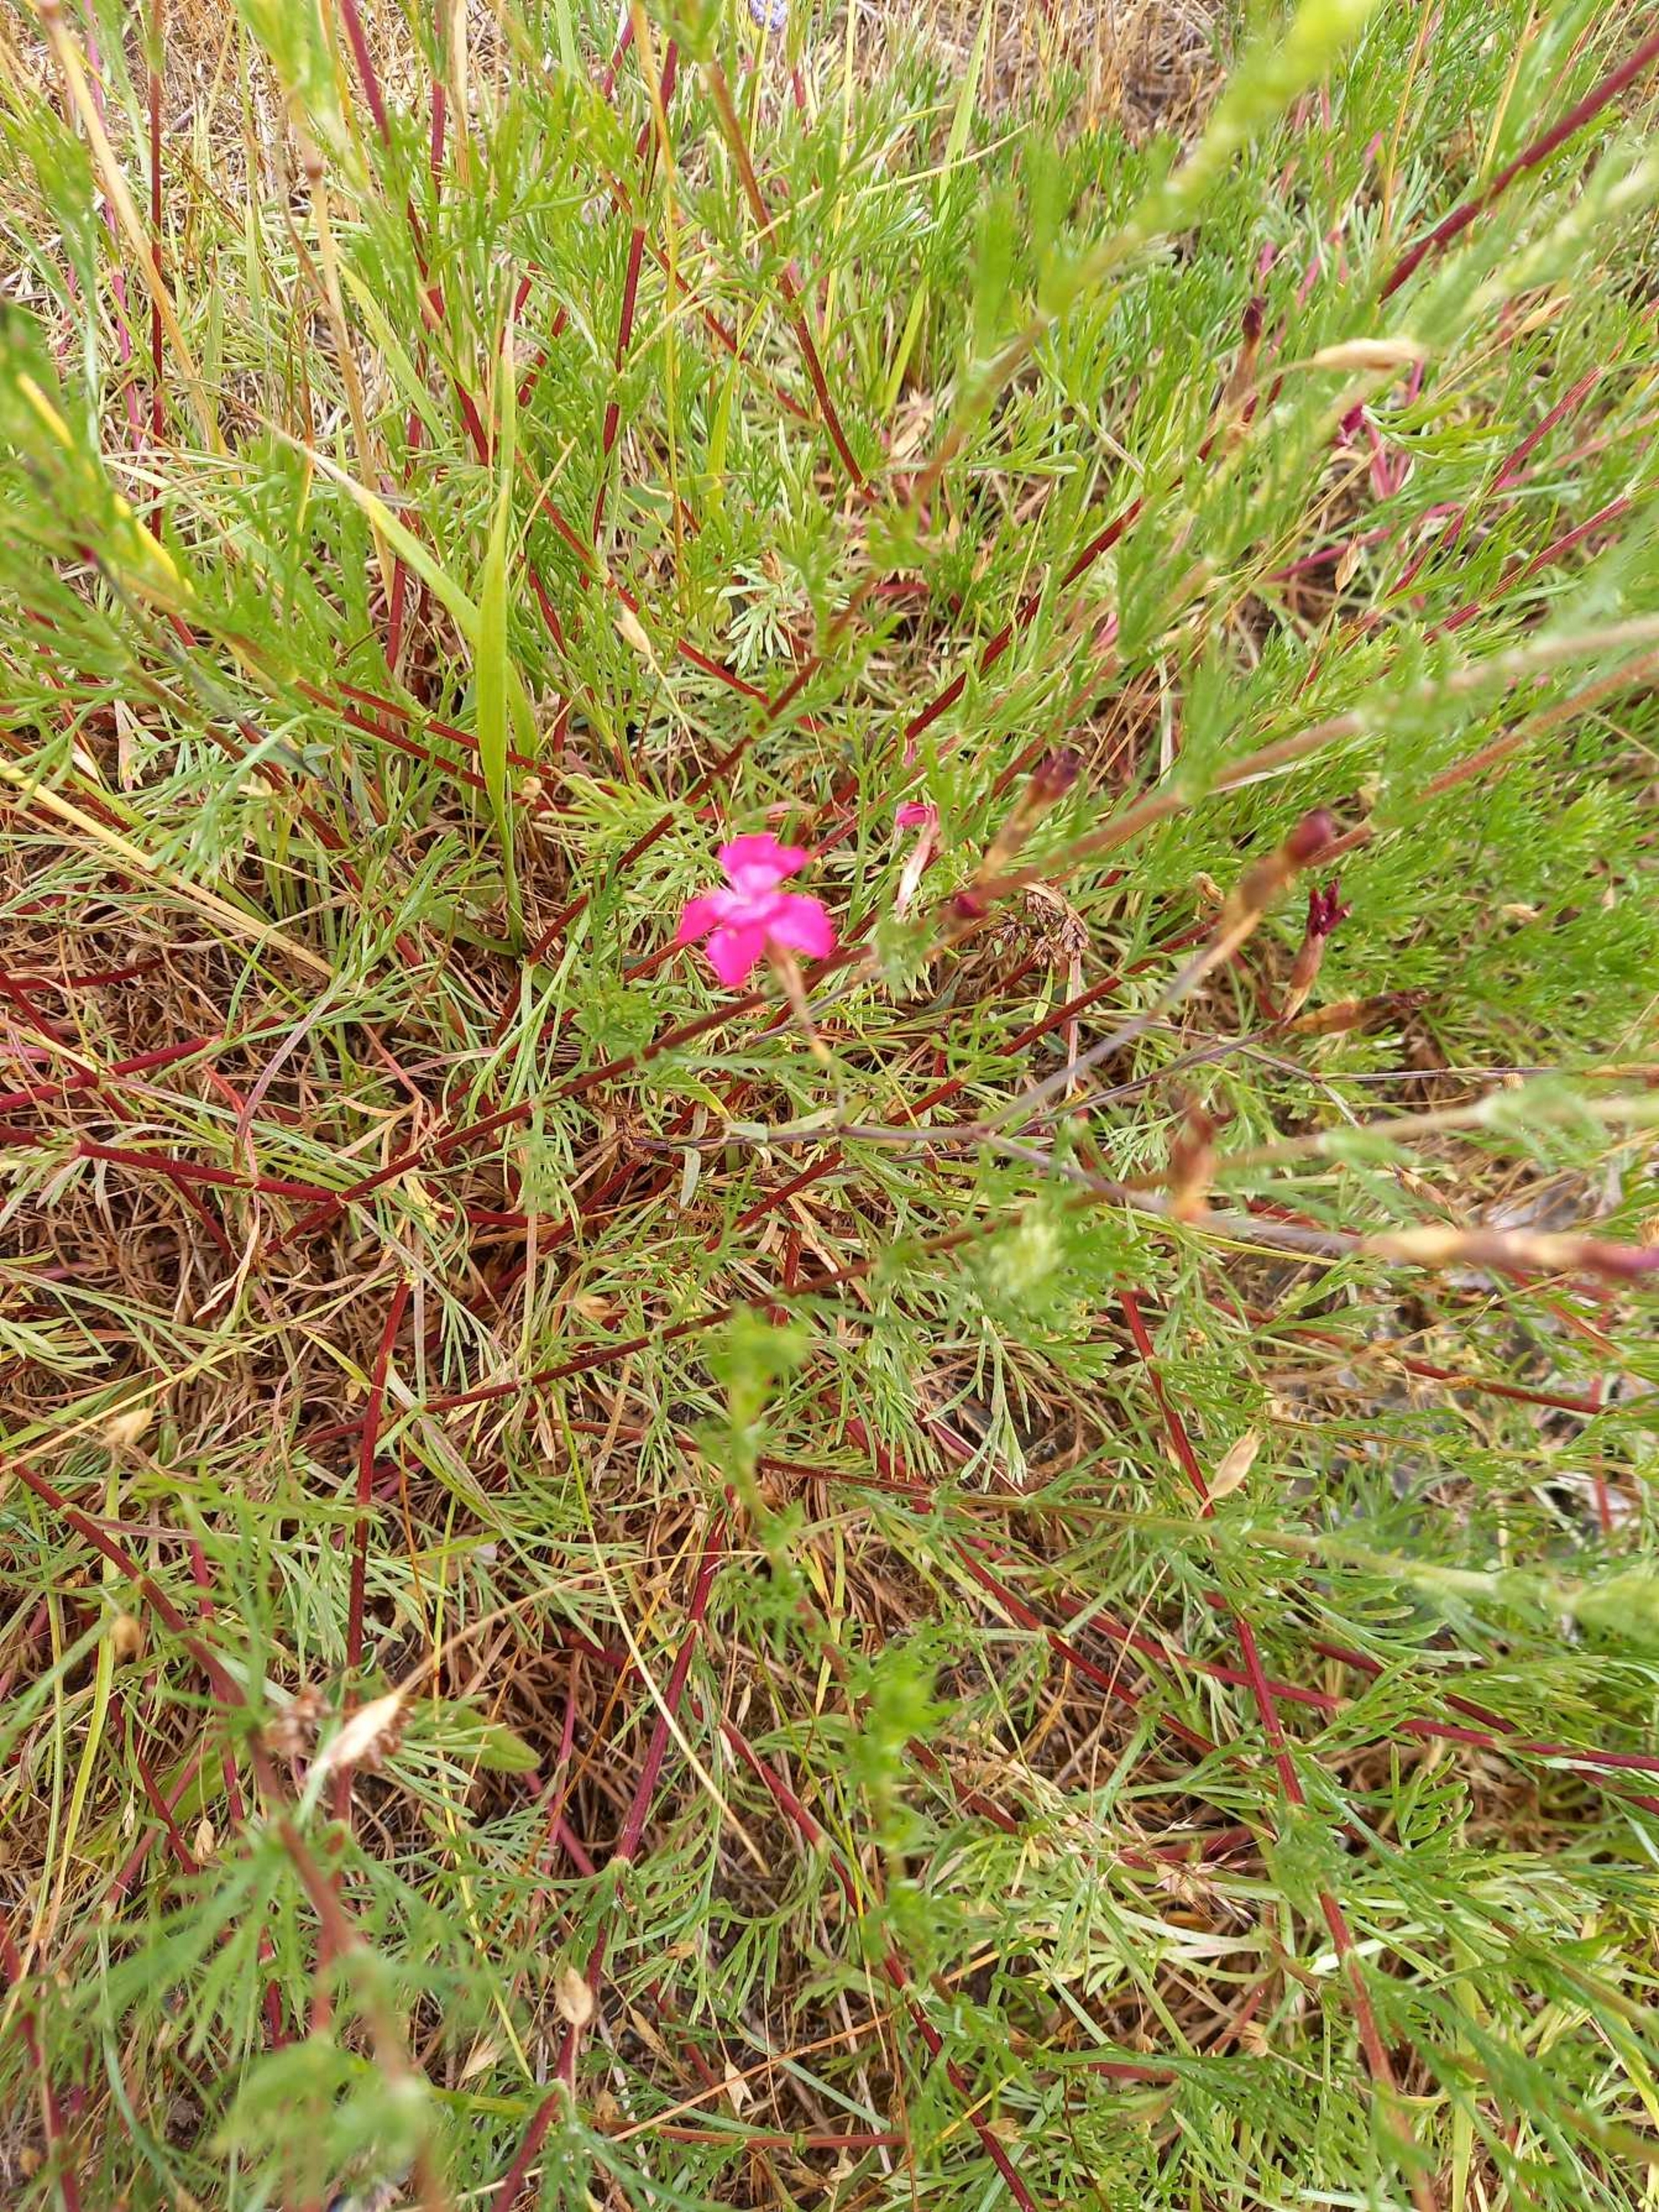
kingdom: Plantae
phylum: Tracheophyta
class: Magnoliopsida
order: Caryophyllales
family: Caryophyllaceae
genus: Dianthus
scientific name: Dianthus deltoides
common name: Bakke-nellike
